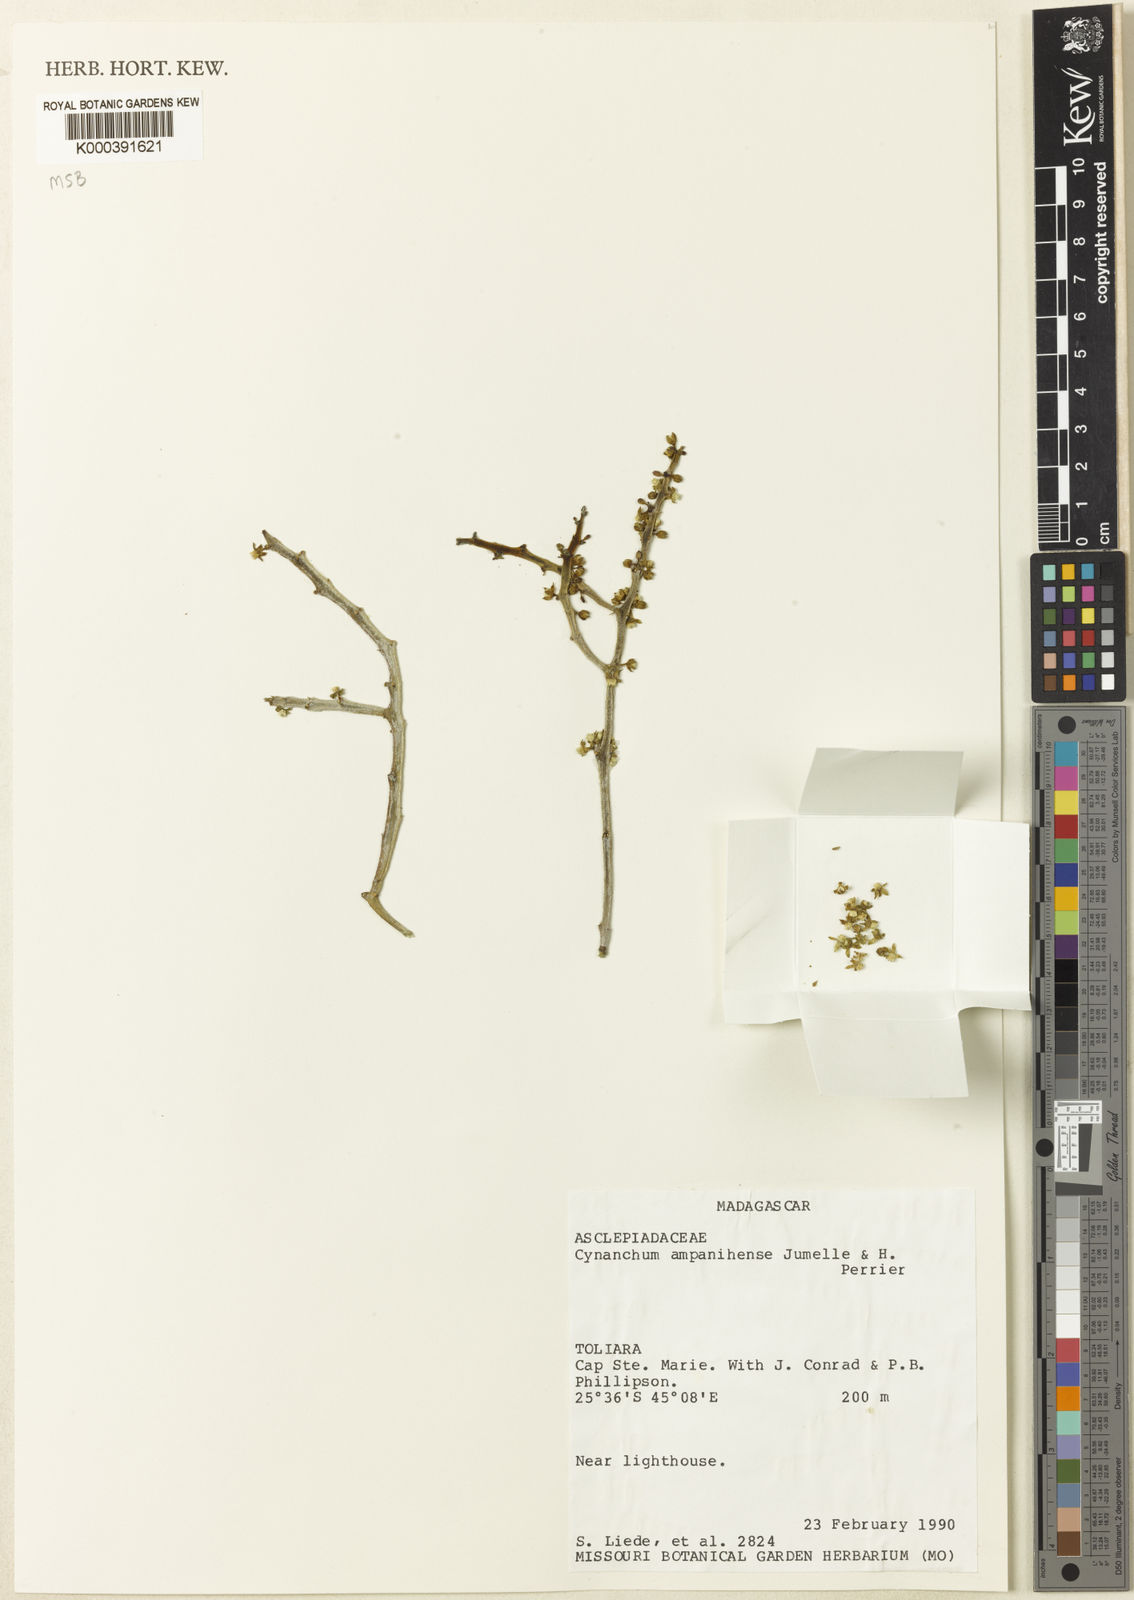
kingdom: Plantae
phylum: Tracheophyta
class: Magnoliopsida
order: Gentianales
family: Apocynaceae
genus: Cynanchum
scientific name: Cynanchum ampanihense
